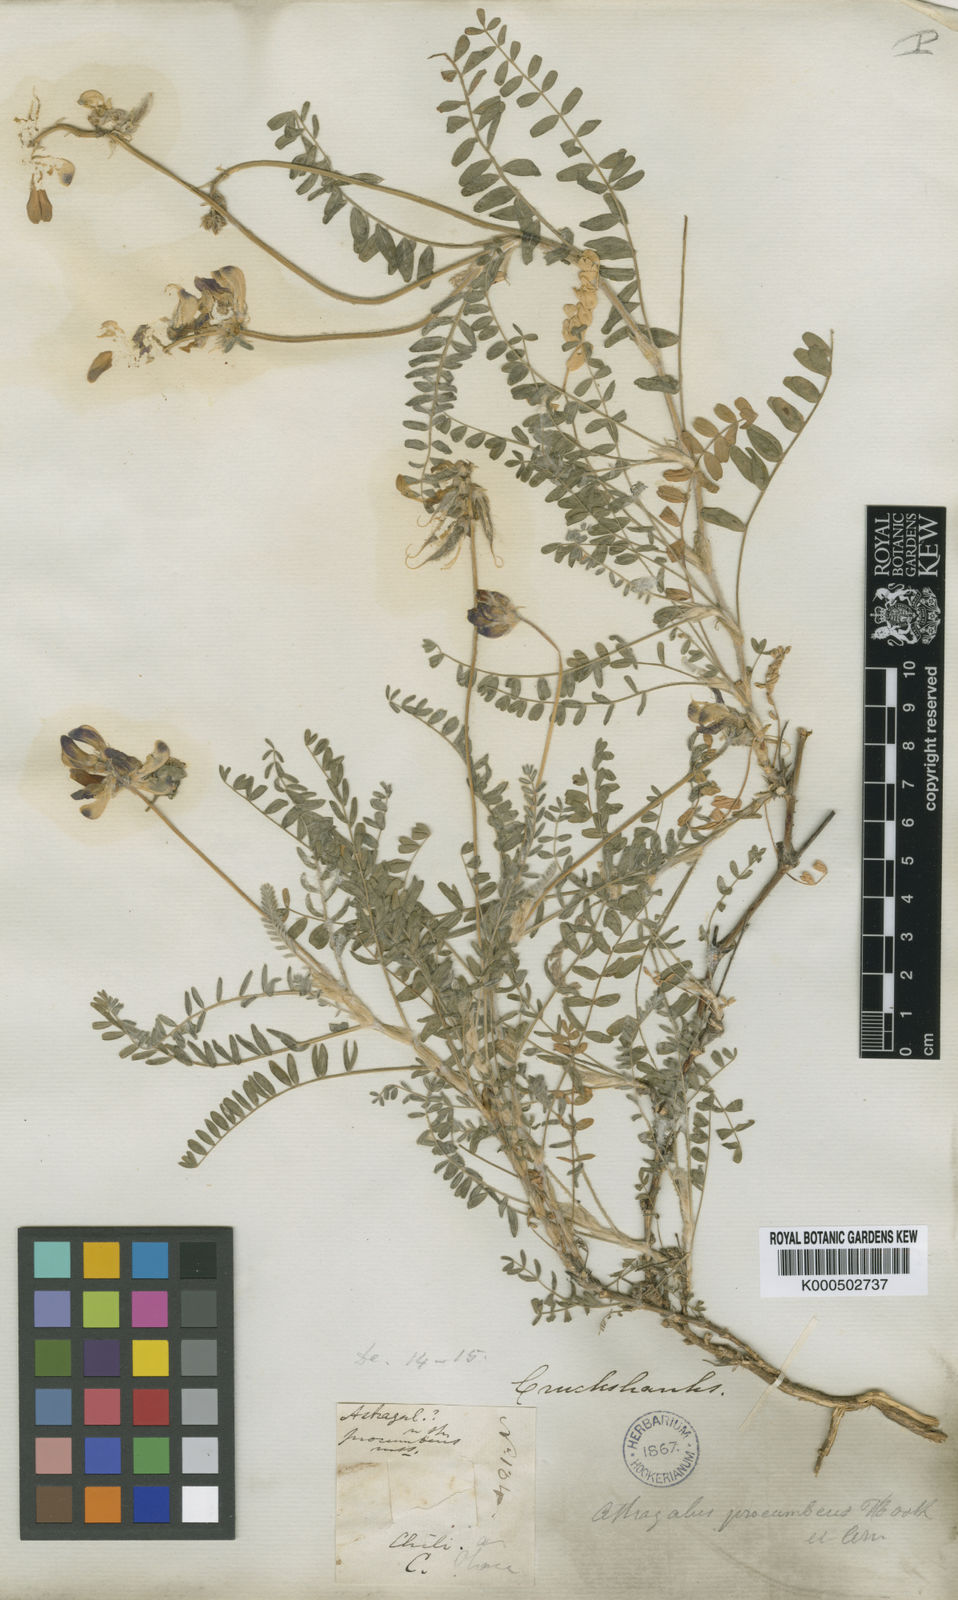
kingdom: Plantae
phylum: Tracheophyta
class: Magnoliopsida
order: Fabales
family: Fabaceae
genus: Astragalus
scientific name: Astragalus amatus
